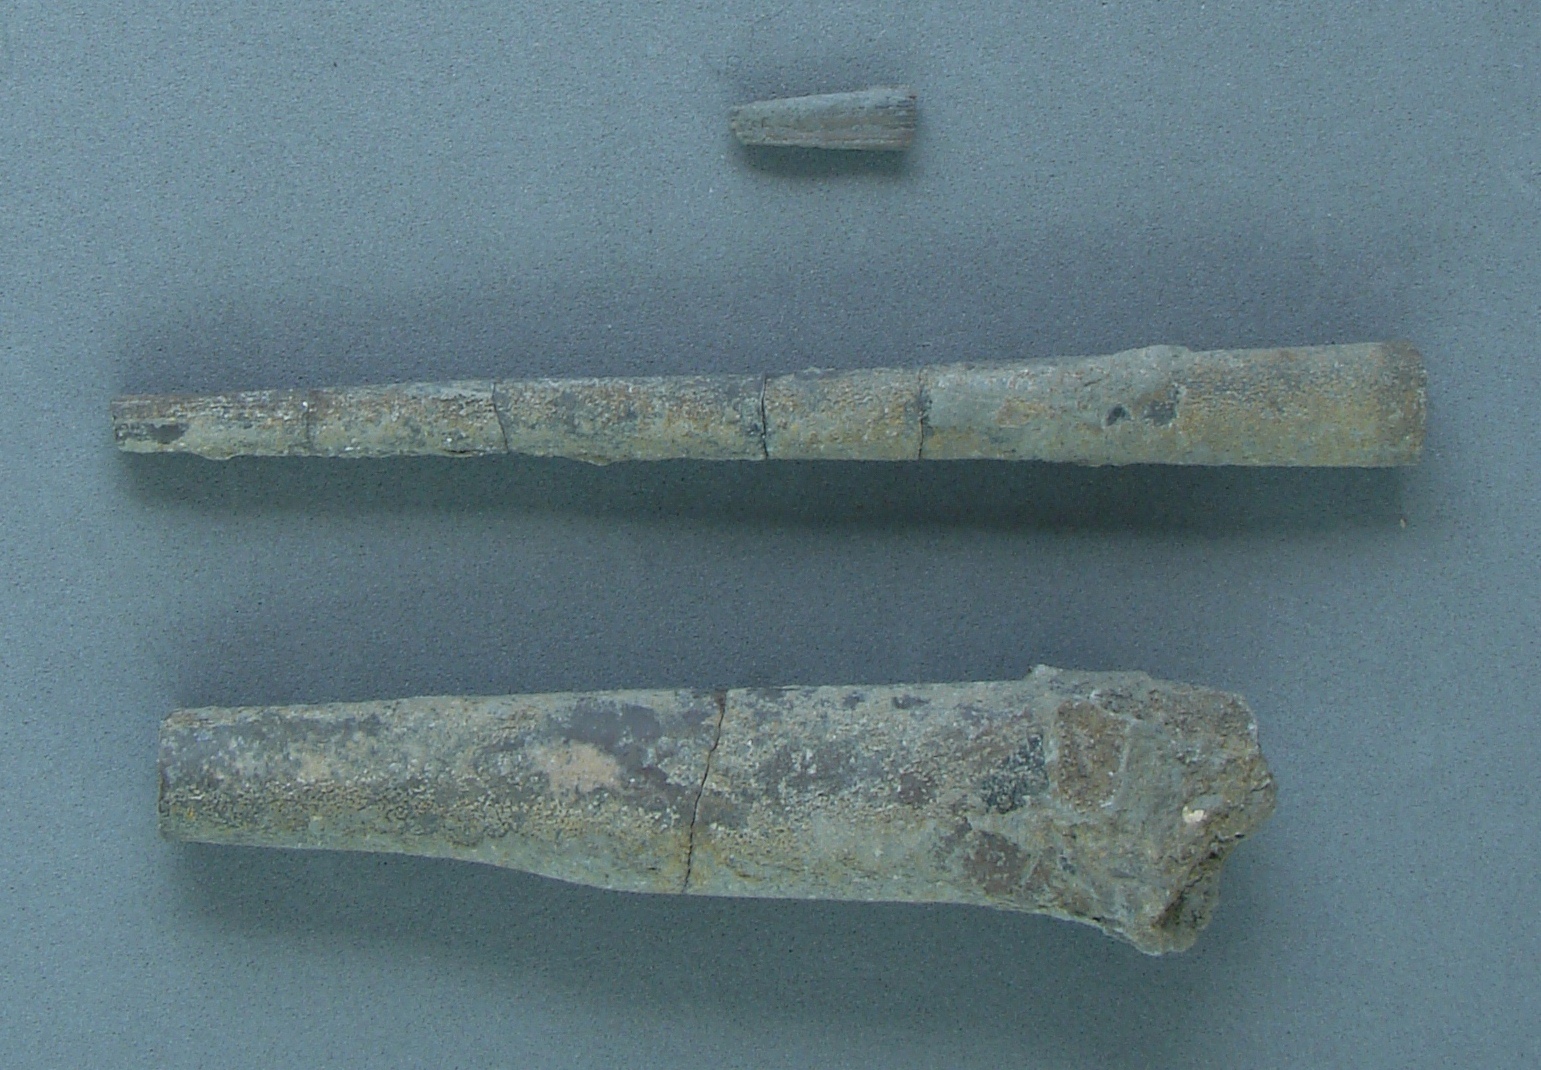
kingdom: Animalia
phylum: Mollusca
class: Cephalopoda
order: Belemnitida
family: Megateuthididae
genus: Dactyloteuthis
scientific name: Dactyloteuthis semistriata
